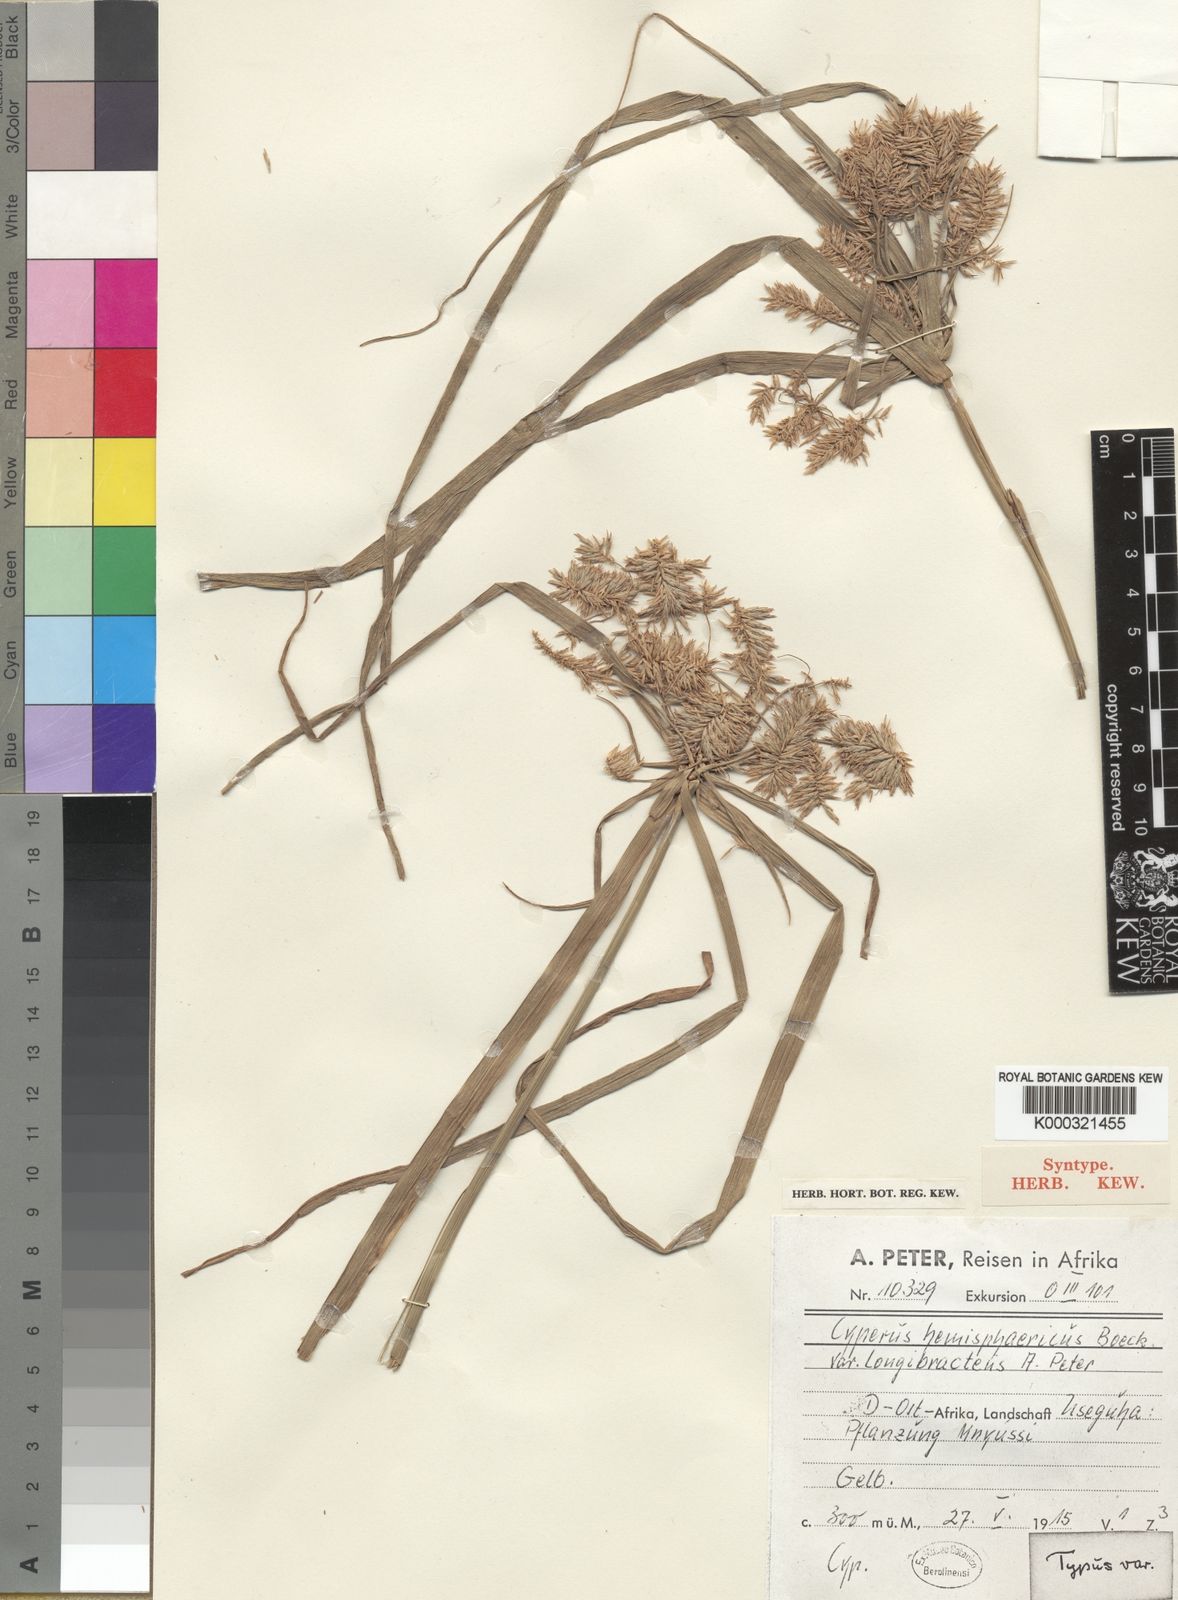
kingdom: Plantae
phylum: Tracheophyta
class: Liliopsida
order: Poales
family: Cyperaceae
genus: Cyperus
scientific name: Cyperus hemisphaericus
